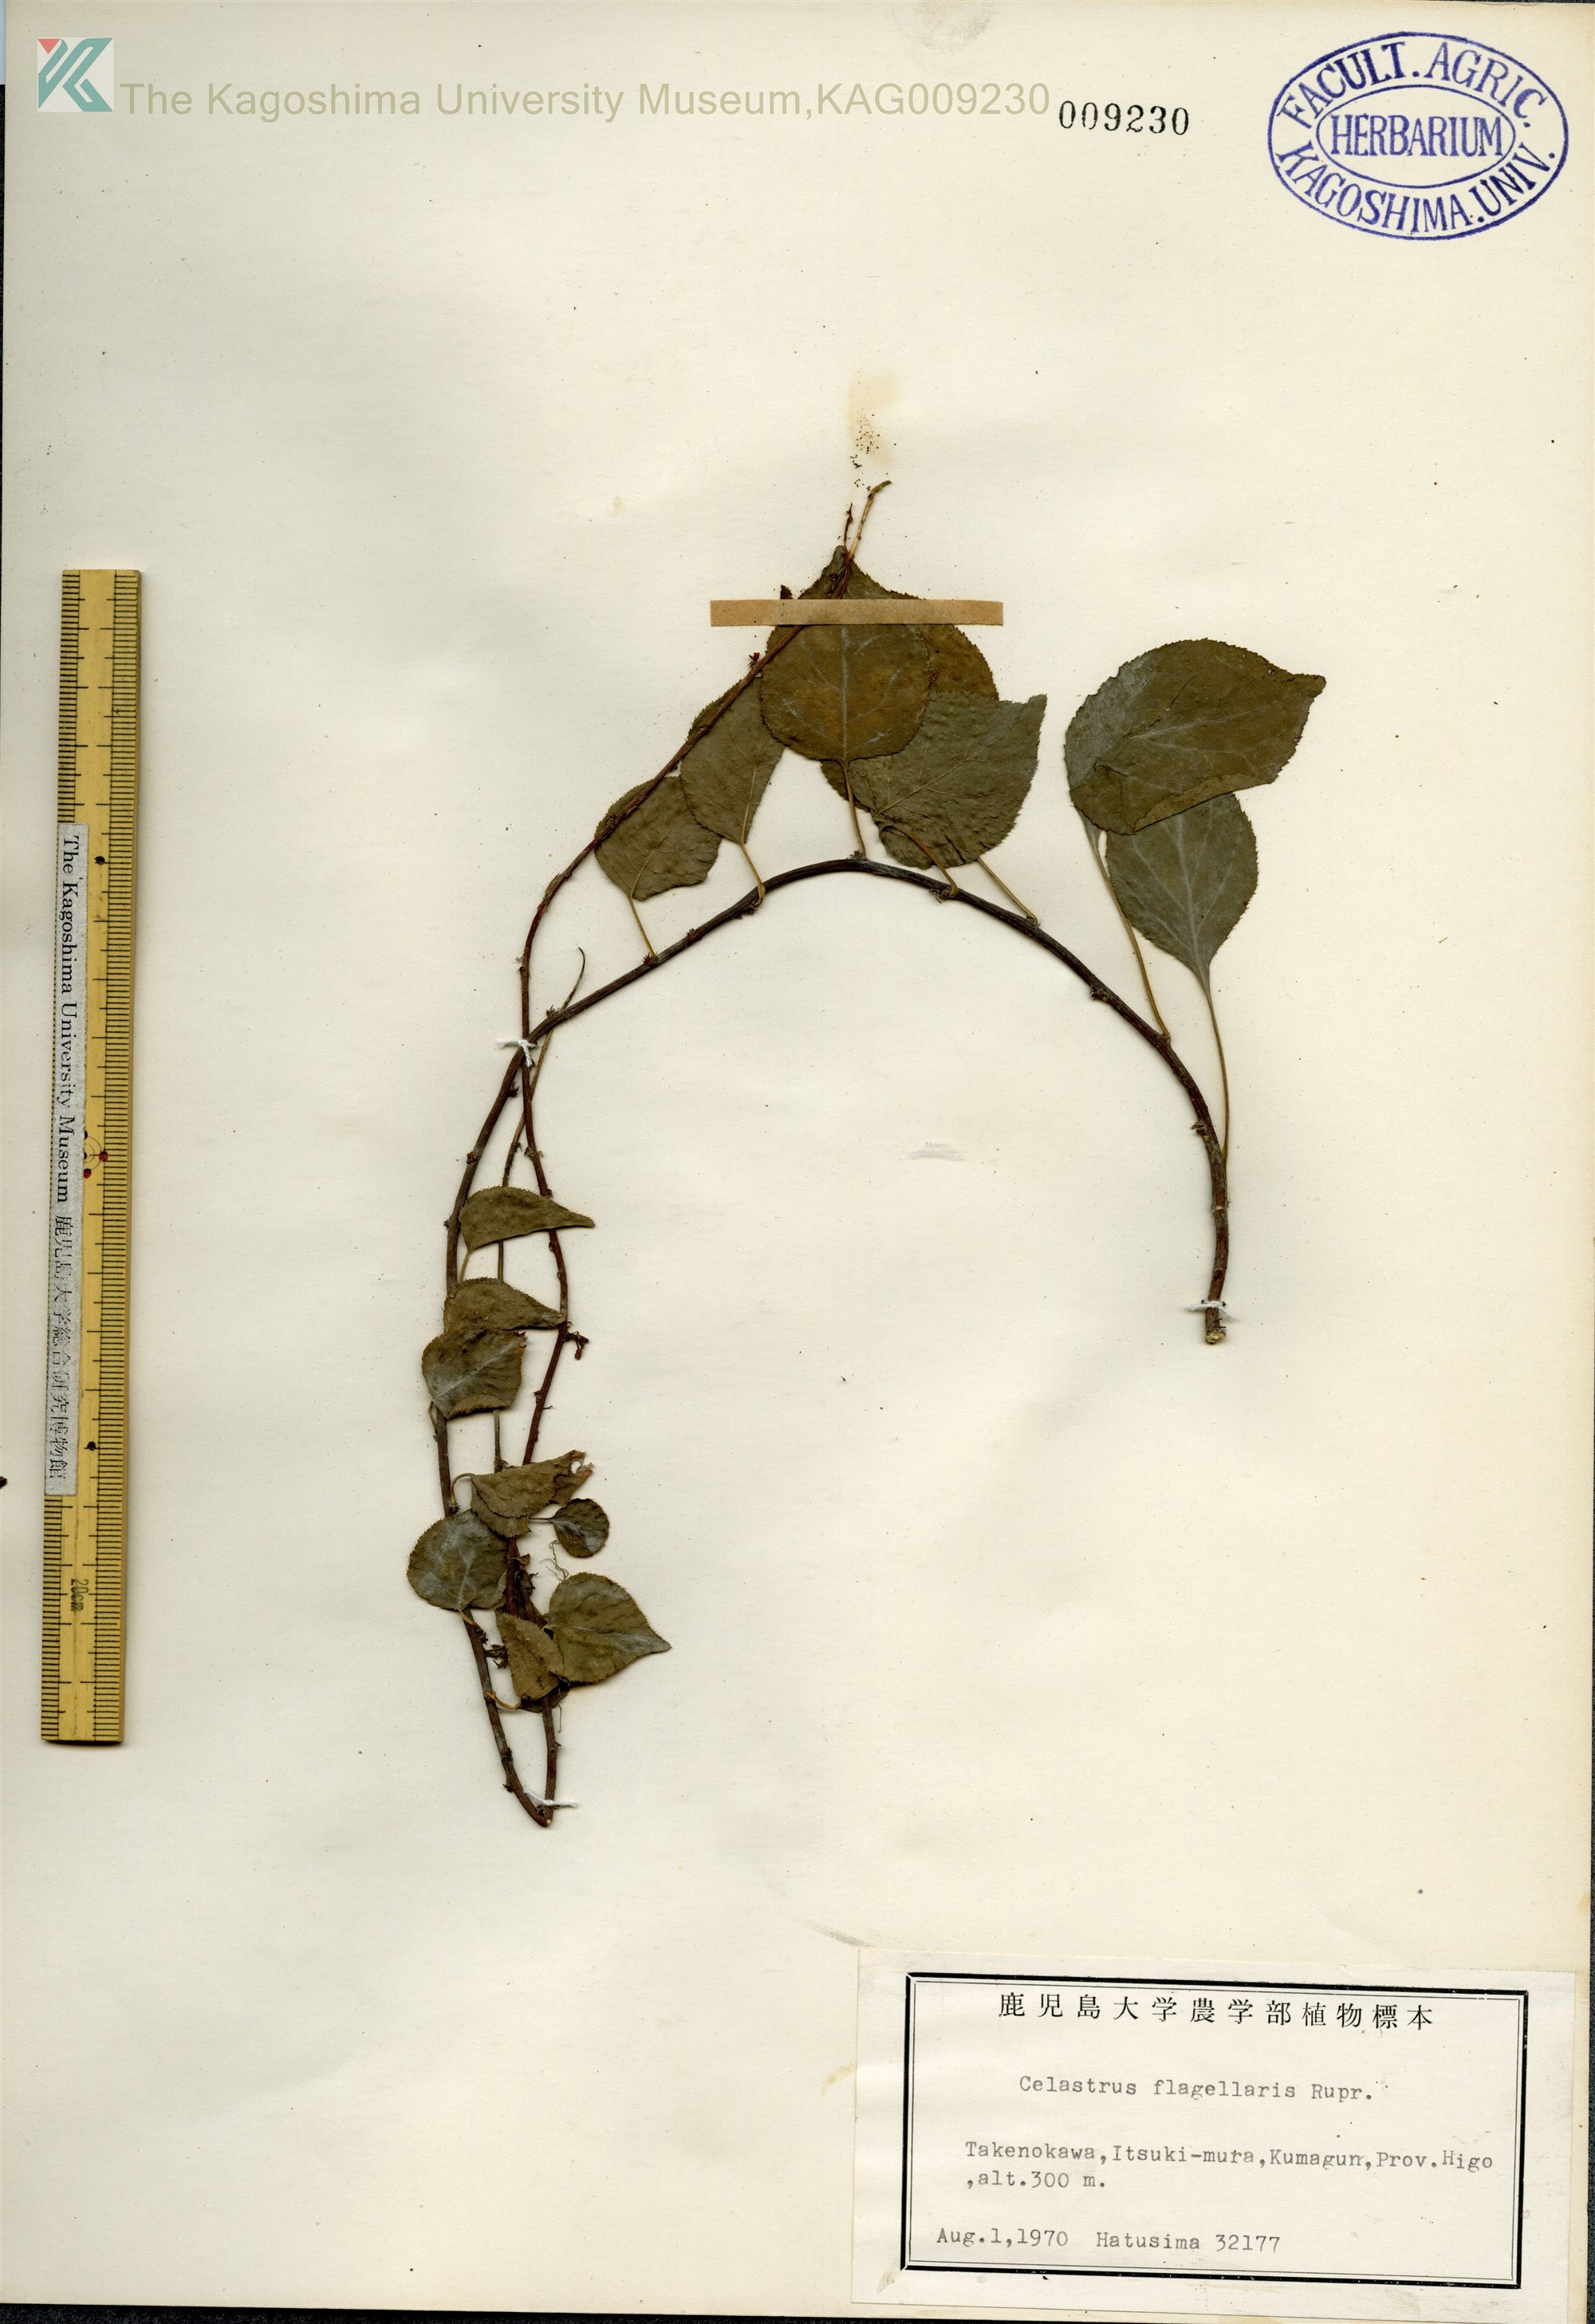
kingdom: Plantae
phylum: Tracheophyta
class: Magnoliopsida
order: Celastrales
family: Celastraceae
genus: Celastrus
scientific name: Celastrus flagellaris
